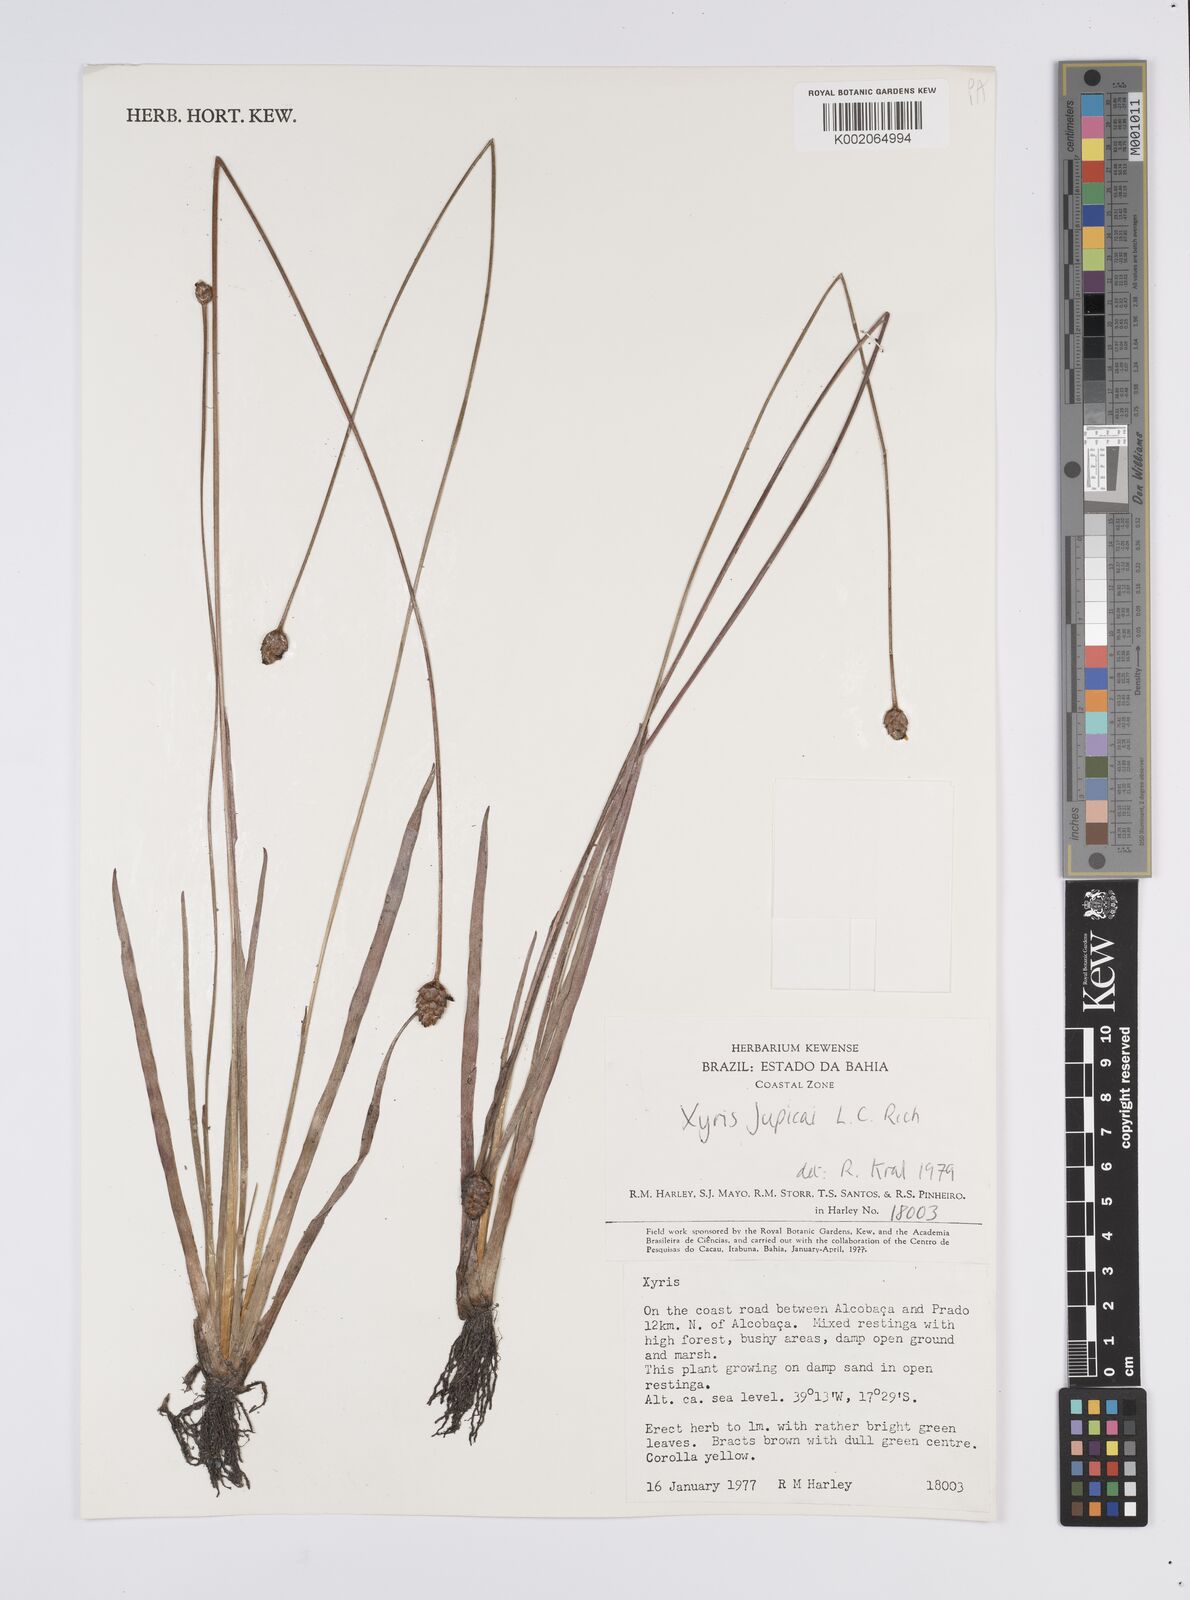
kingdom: Plantae
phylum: Tracheophyta
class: Liliopsida
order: Poales
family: Xyridaceae
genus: Xyris
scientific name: Xyris jupicai
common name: Richard's yelloweyed grass
